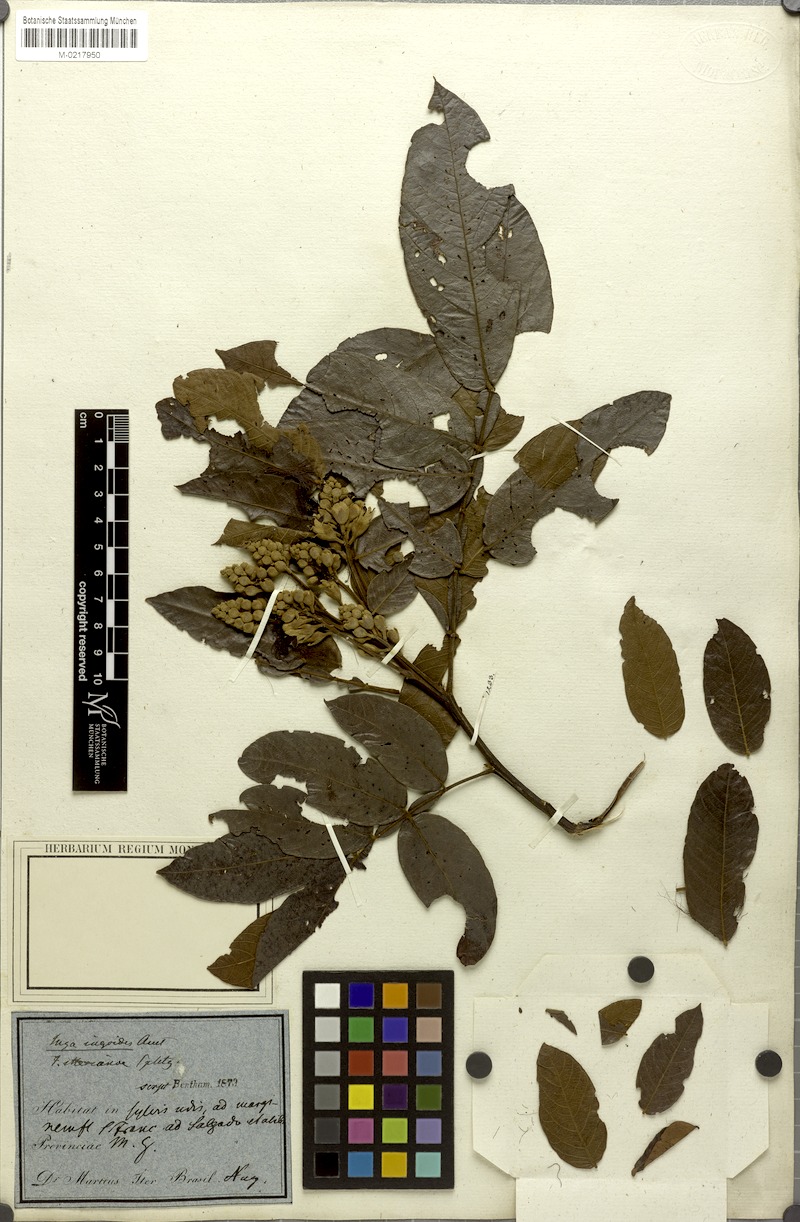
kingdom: Plantae
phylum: Tracheophyta
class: Magnoliopsida
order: Fabales
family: Fabaceae
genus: Inga
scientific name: Inga ingoides
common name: Spanish ash
